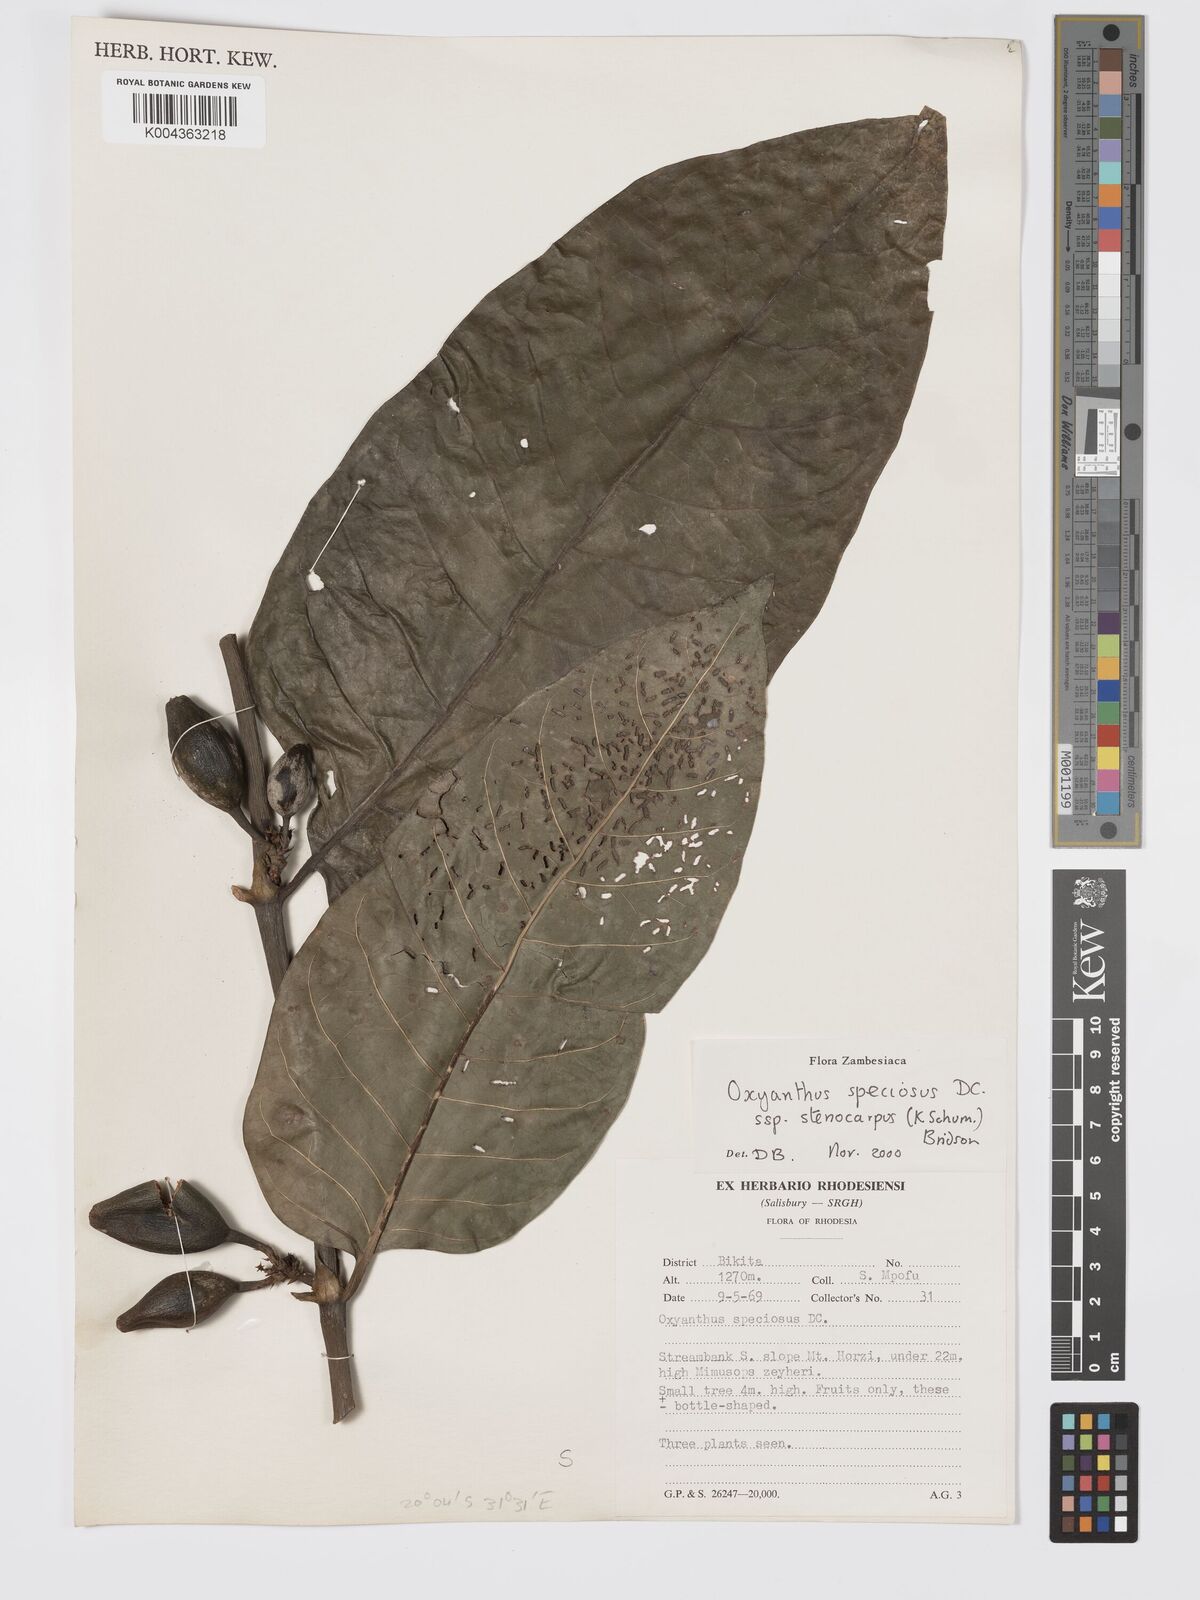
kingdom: Plantae
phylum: Tracheophyta
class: Magnoliopsida
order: Gentianales
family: Rubiaceae
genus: Oxyanthus
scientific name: Oxyanthus speciosus
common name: Whipstick loquat
